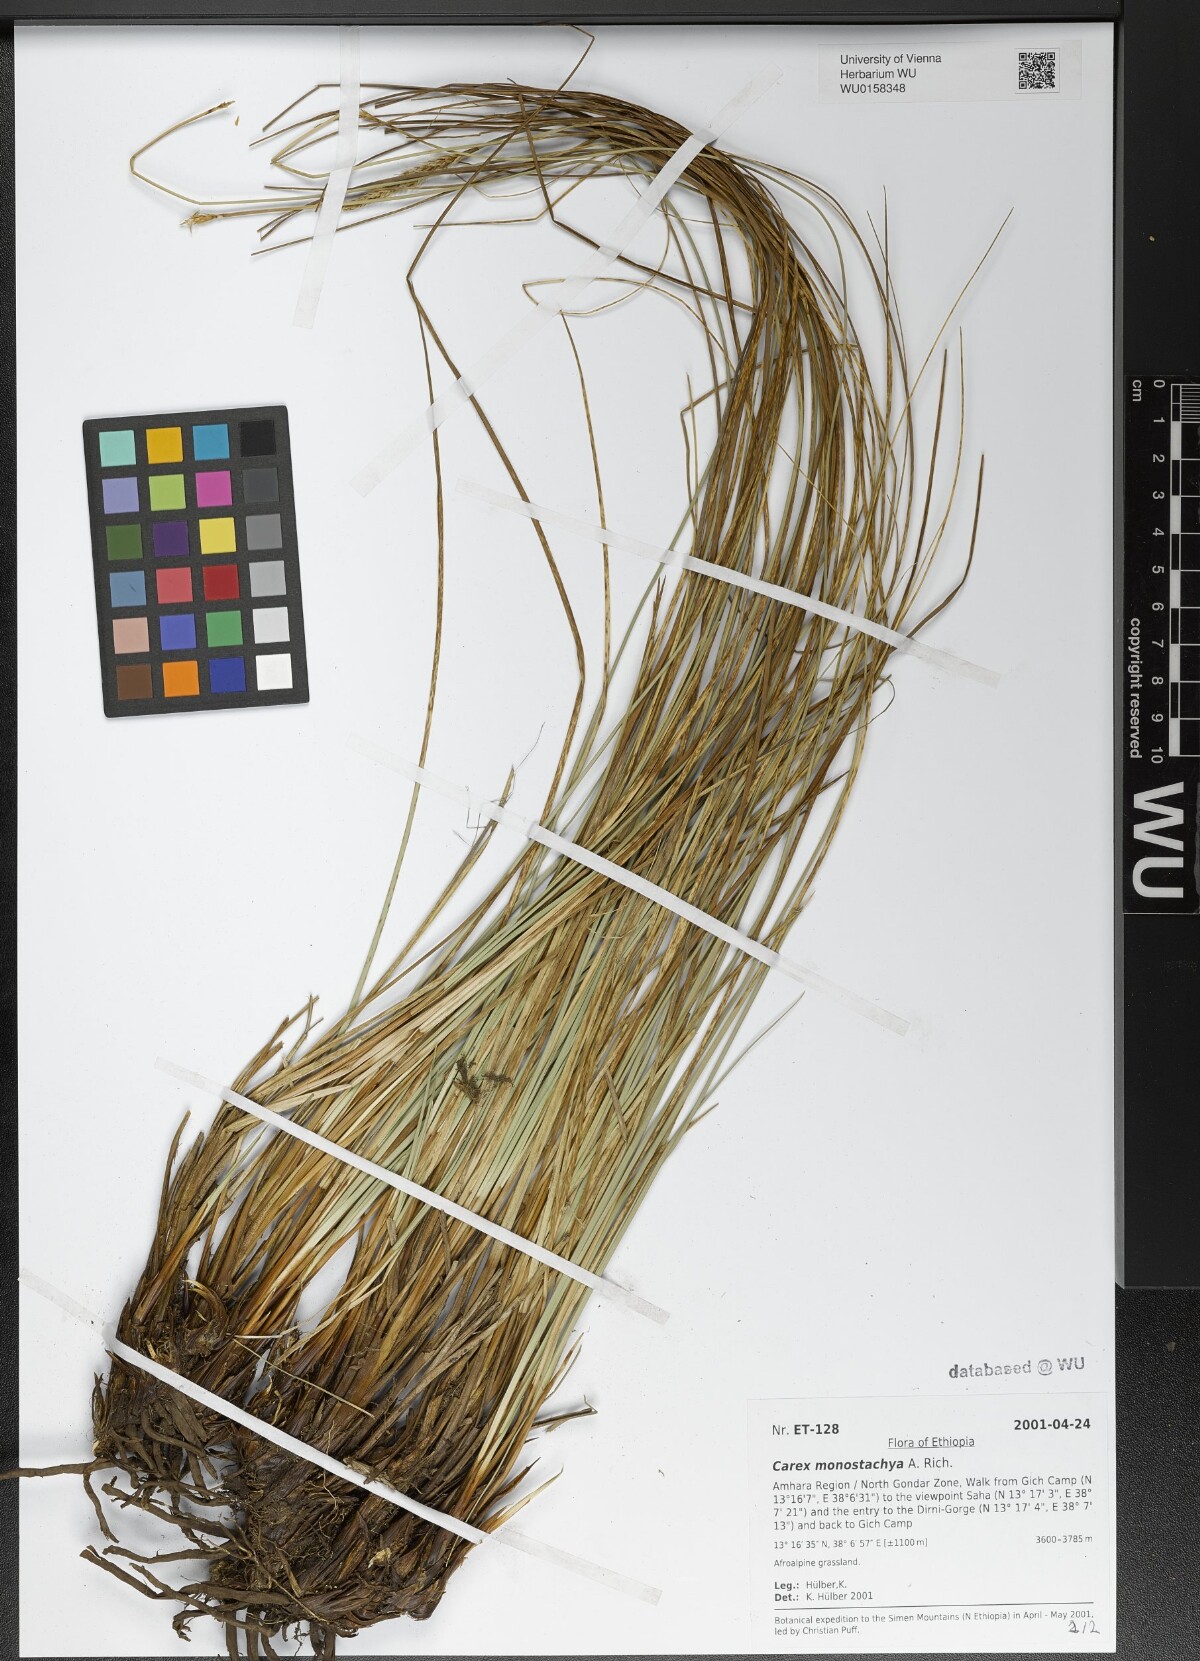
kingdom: Plantae
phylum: Tracheophyta
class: Liliopsida
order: Poales
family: Cyperaceae
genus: Carex
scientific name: Carex monostachya
